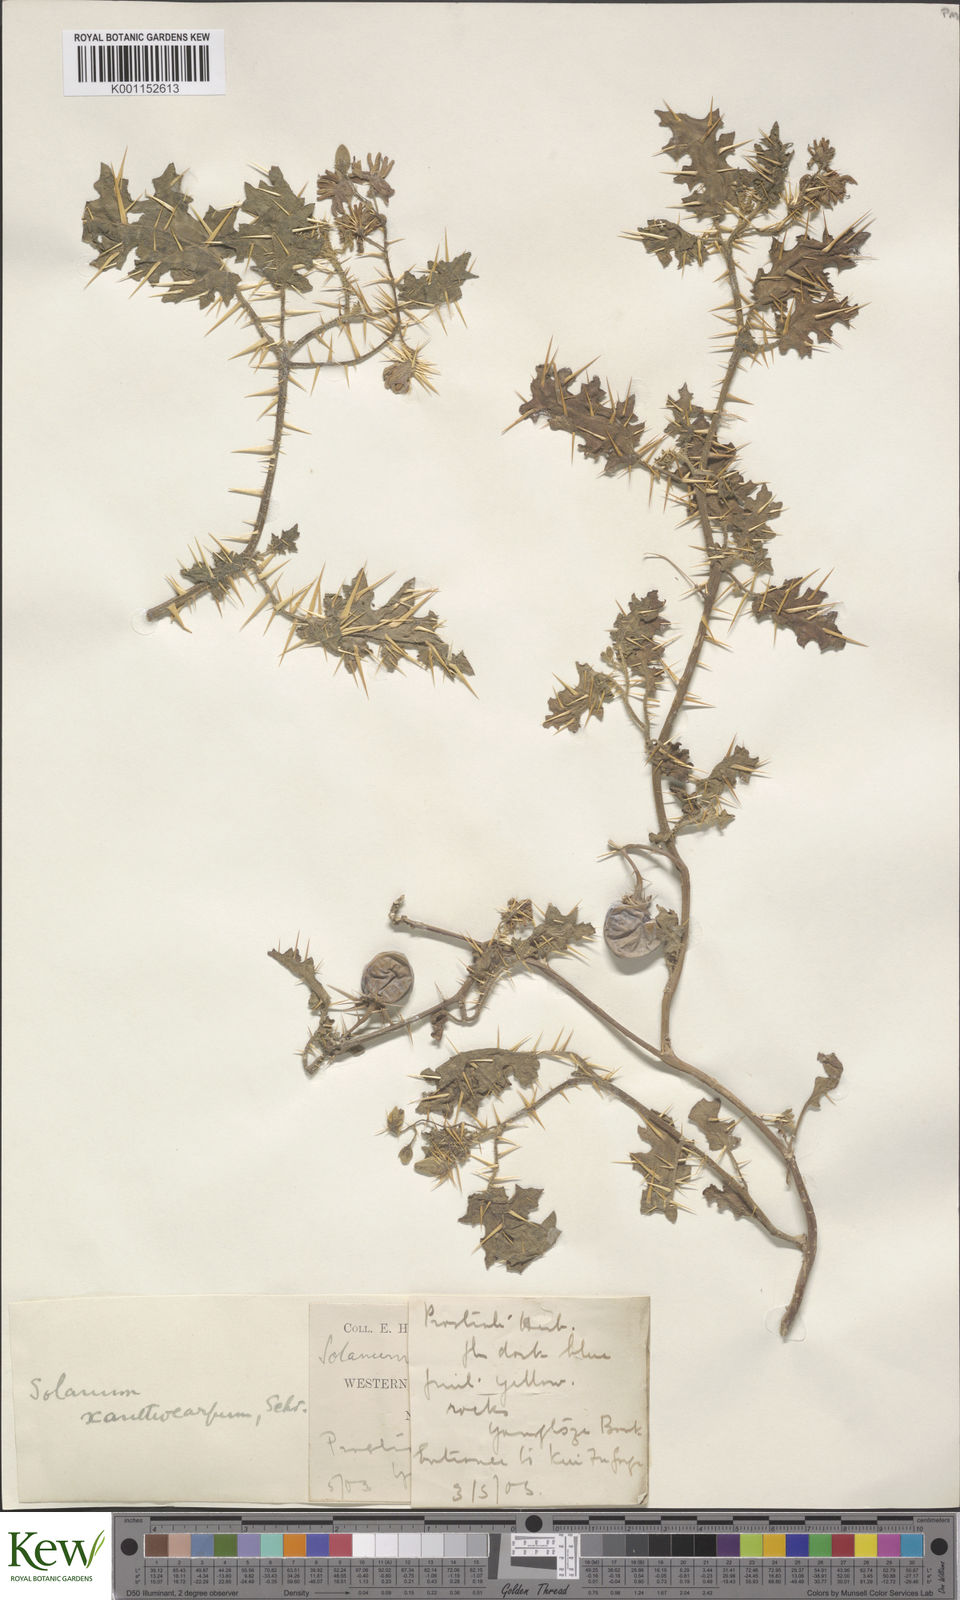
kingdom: Plantae
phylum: Tracheophyta
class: Magnoliopsida
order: Solanales
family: Solanaceae
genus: Solanum
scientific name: Solanum virginianum
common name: Surattense nightshade
